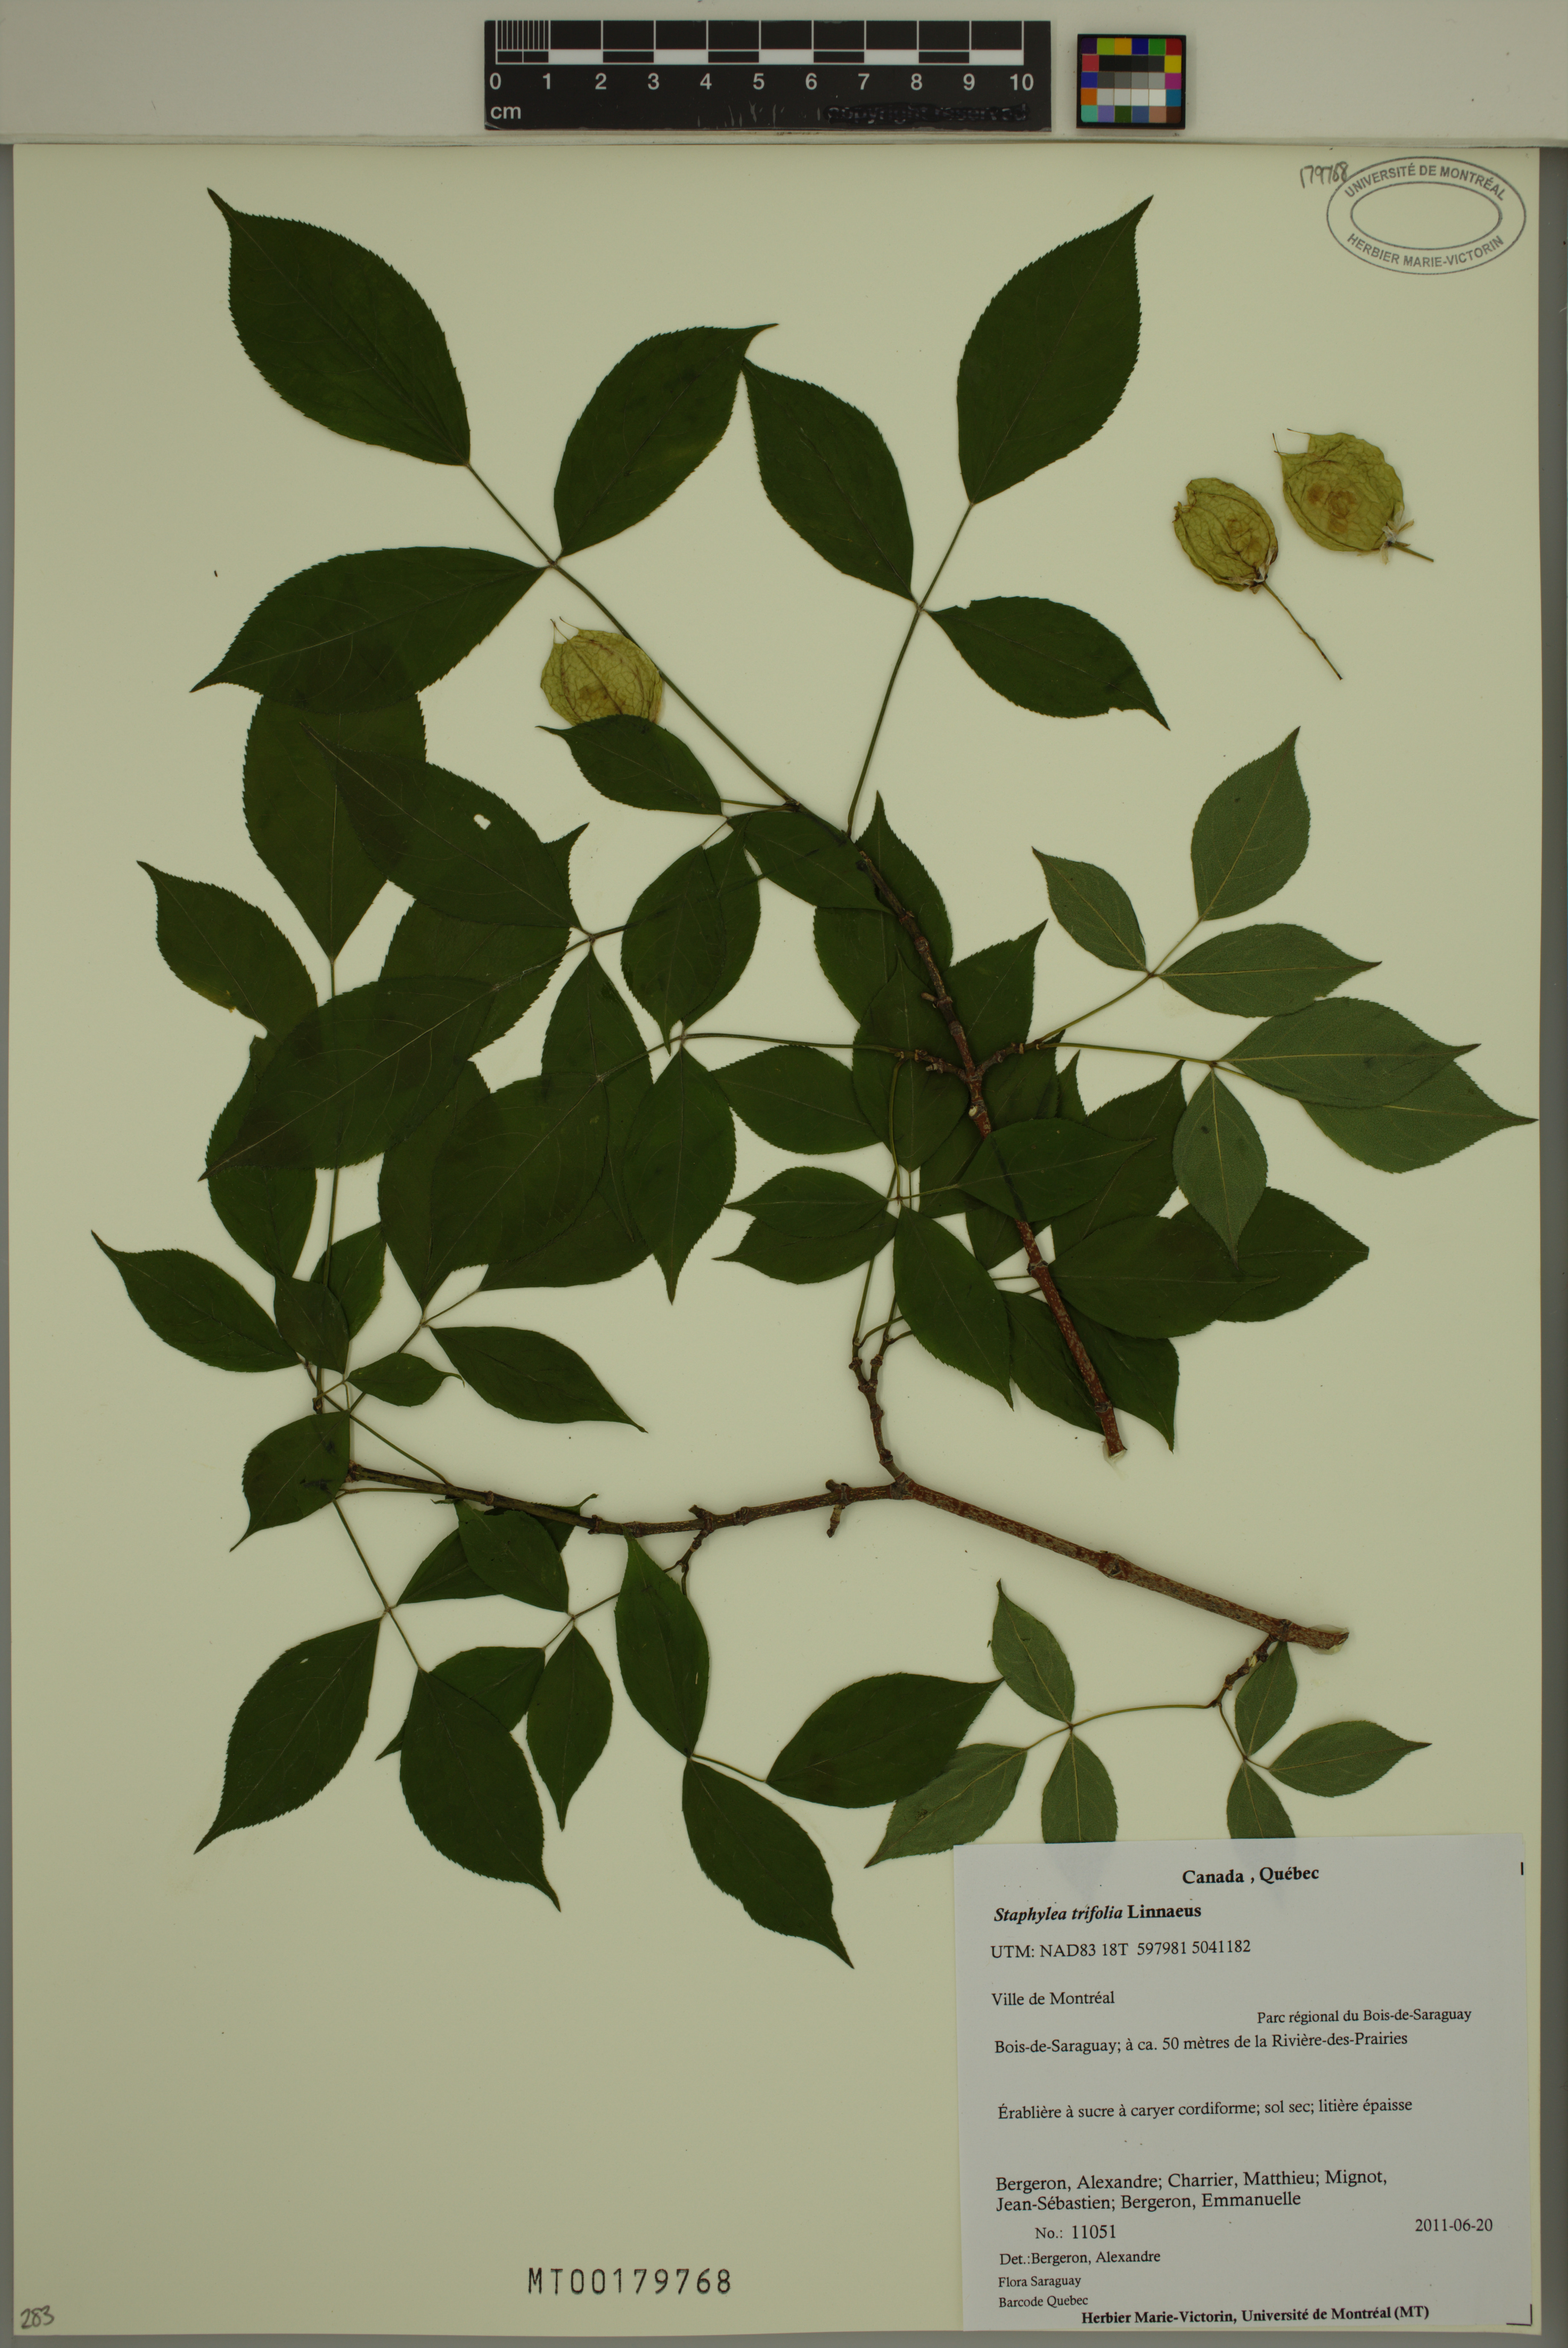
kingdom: Plantae
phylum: Tracheophyta
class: Magnoliopsida
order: Crossosomatales
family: Staphyleaceae
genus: Staphylea
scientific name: Staphylea trifolia
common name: American bladdernut
